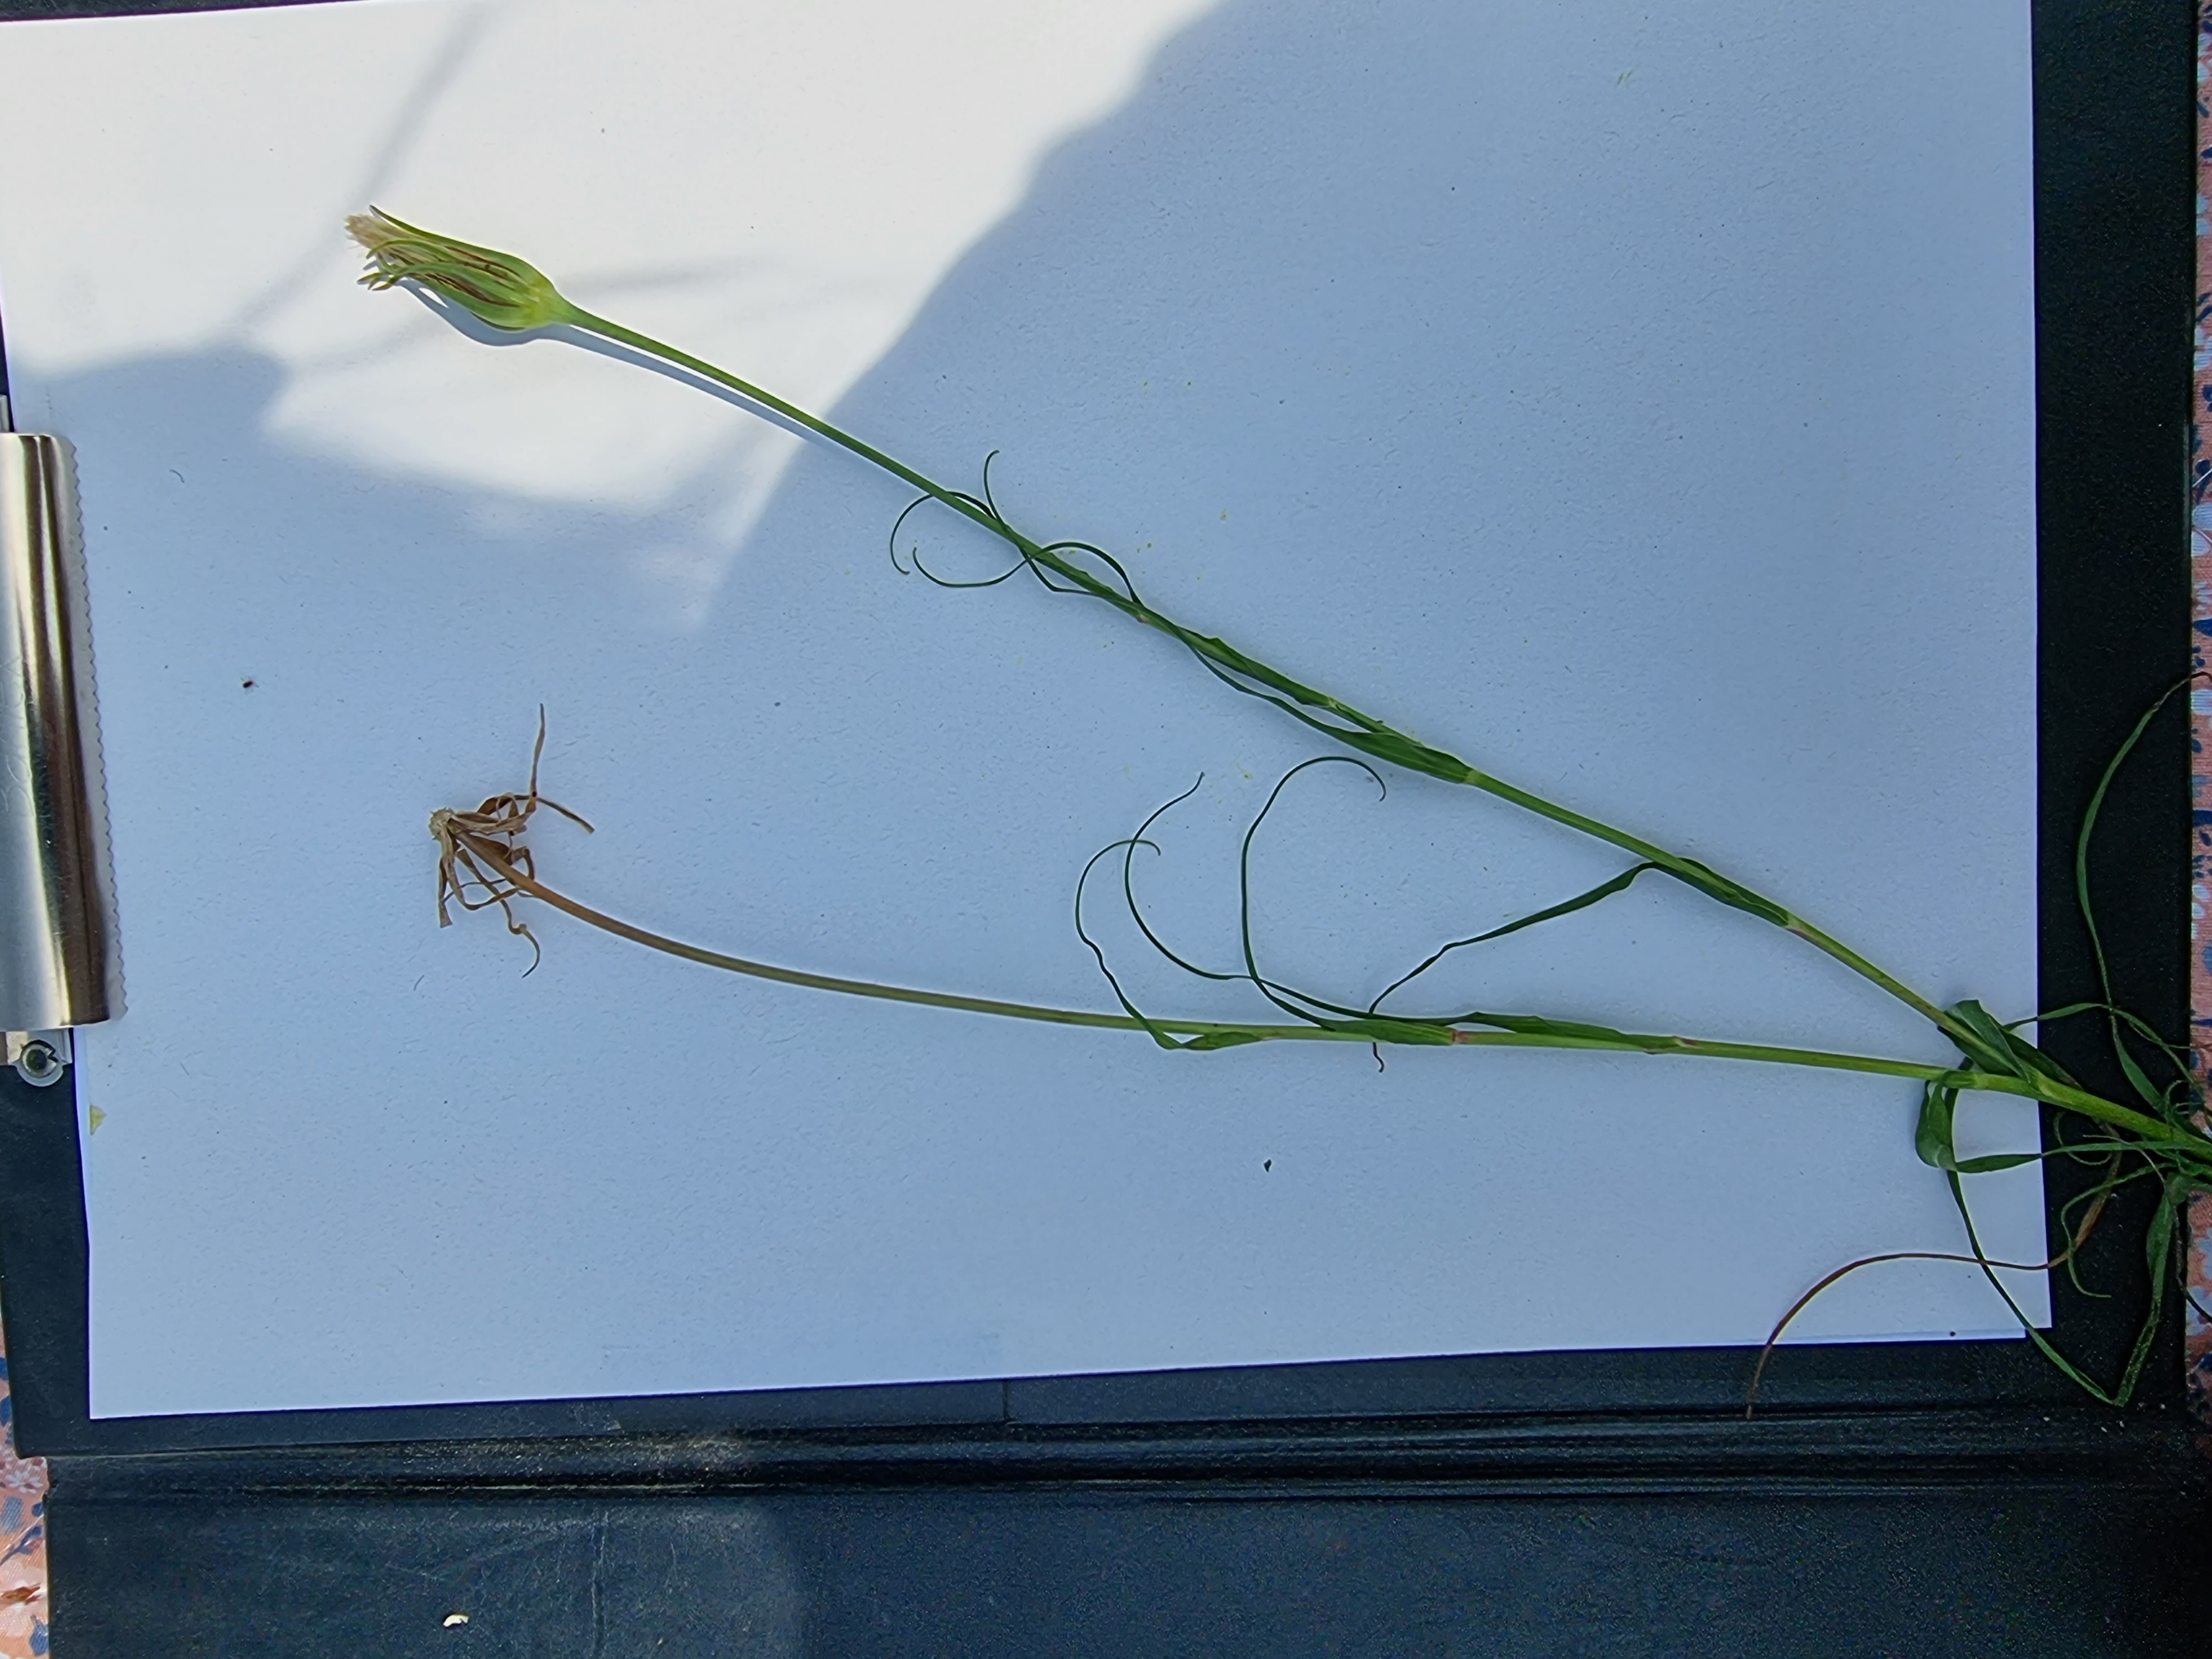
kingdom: Plantae
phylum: Tracheophyta
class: Magnoliopsida
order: Asterales
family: Asteraceae
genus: Tragopogon
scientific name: Tragopogon pratensis
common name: Gedeskæg
